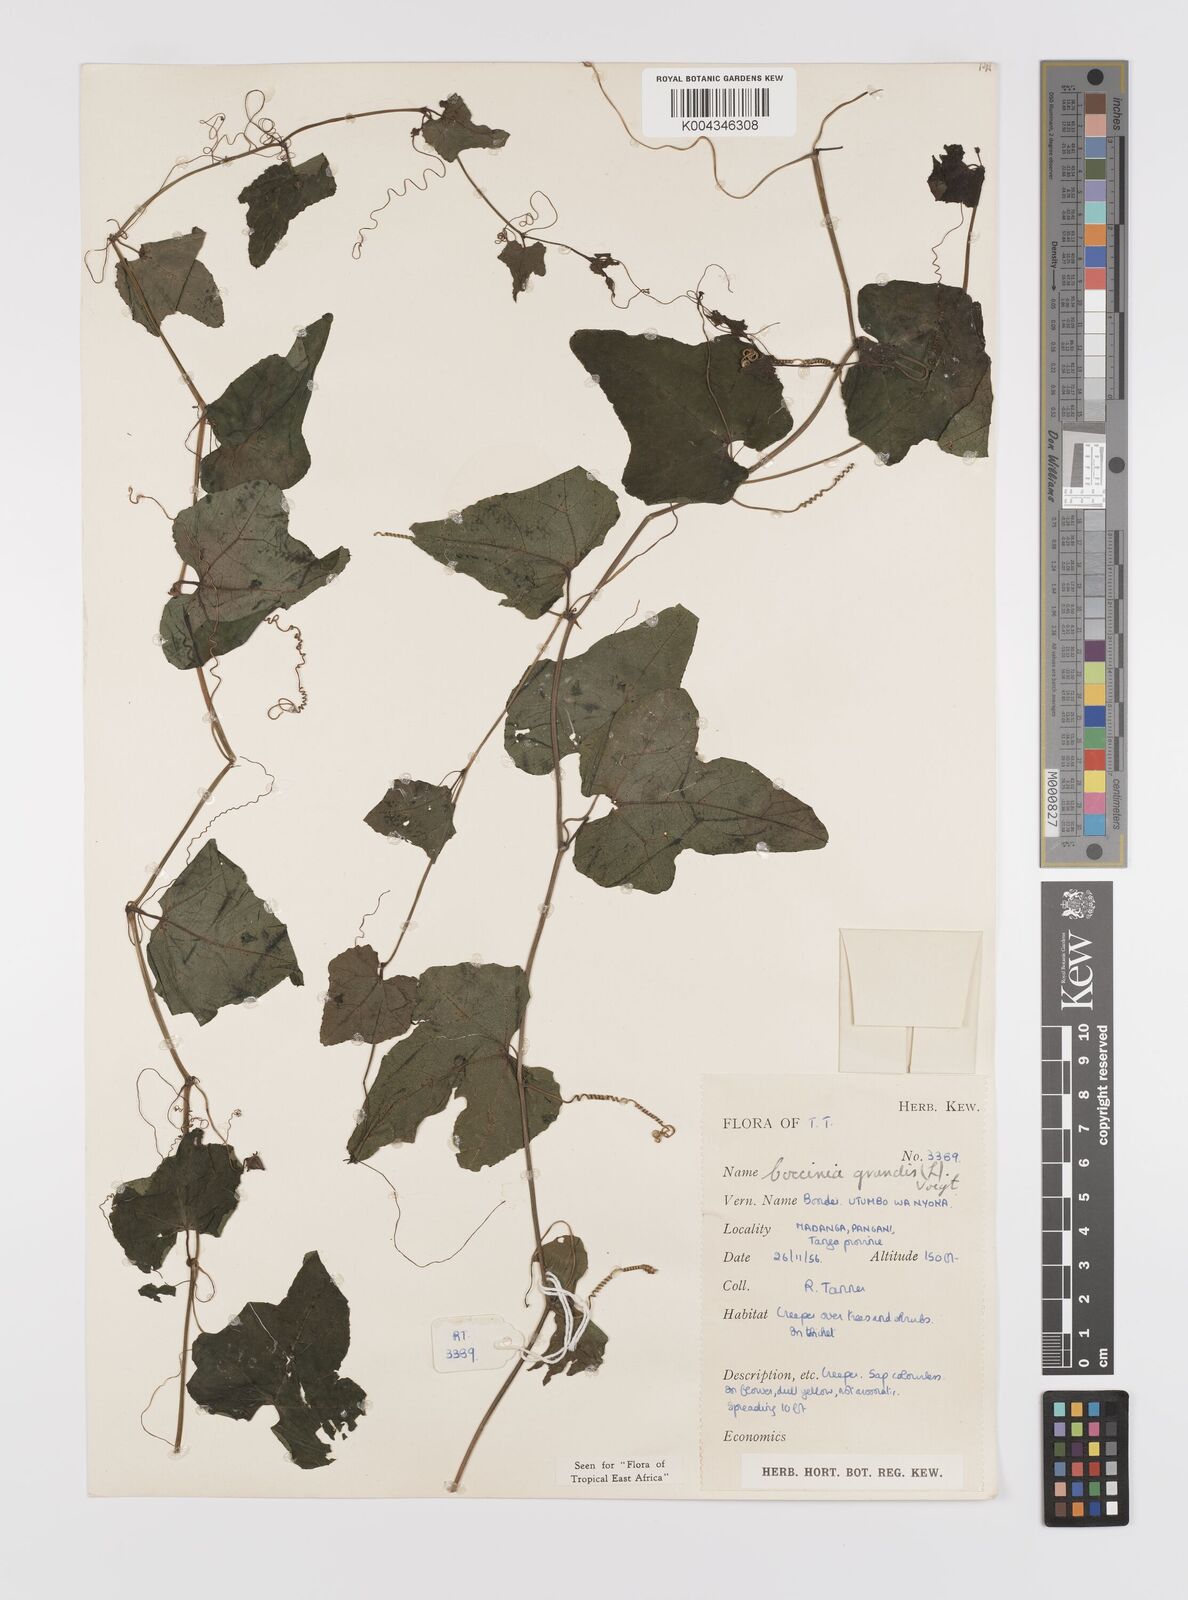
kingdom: Plantae
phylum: Tracheophyta
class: Magnoliopsida
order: Cucurbitales
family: Cucurbitaceae
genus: Coccinia
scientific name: Coccinia grandis
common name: Ivy gourd
